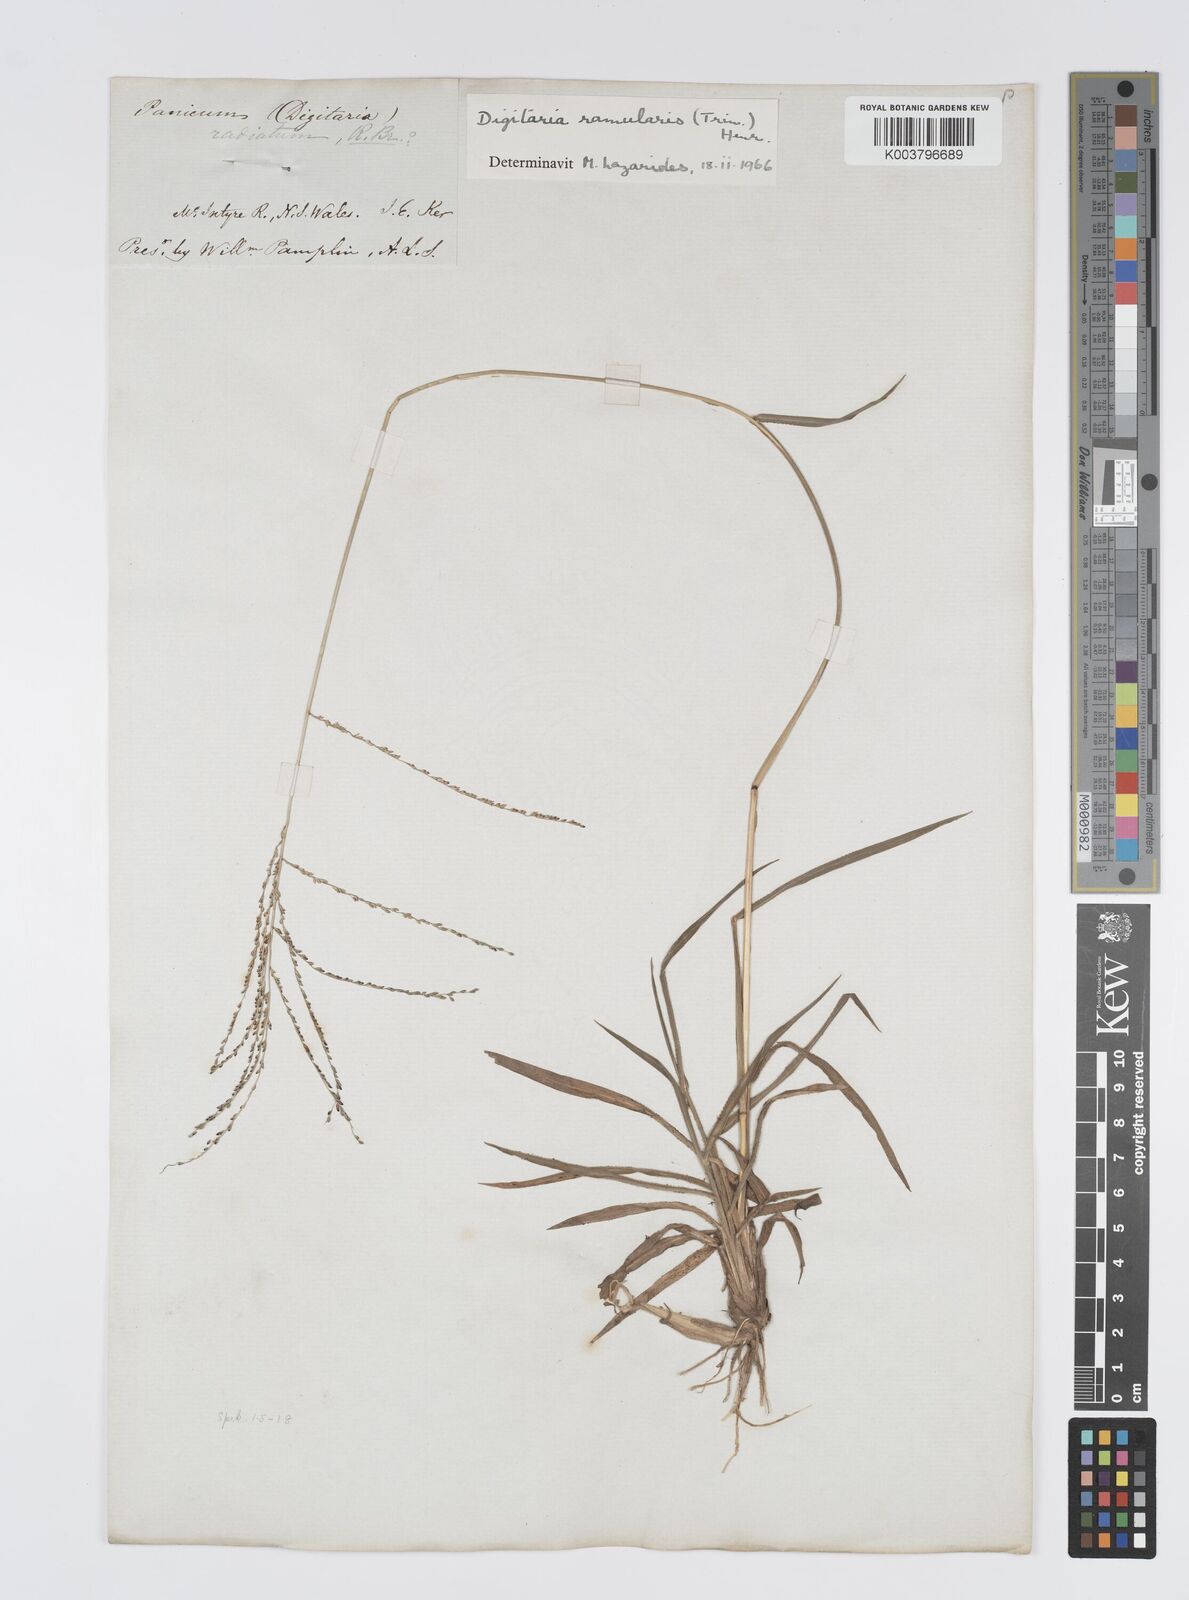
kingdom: Plantae
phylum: Tracheophyta
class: Liliopsida
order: Poales
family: Poaceae
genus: Digitaria
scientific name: Digitaria ramularis
